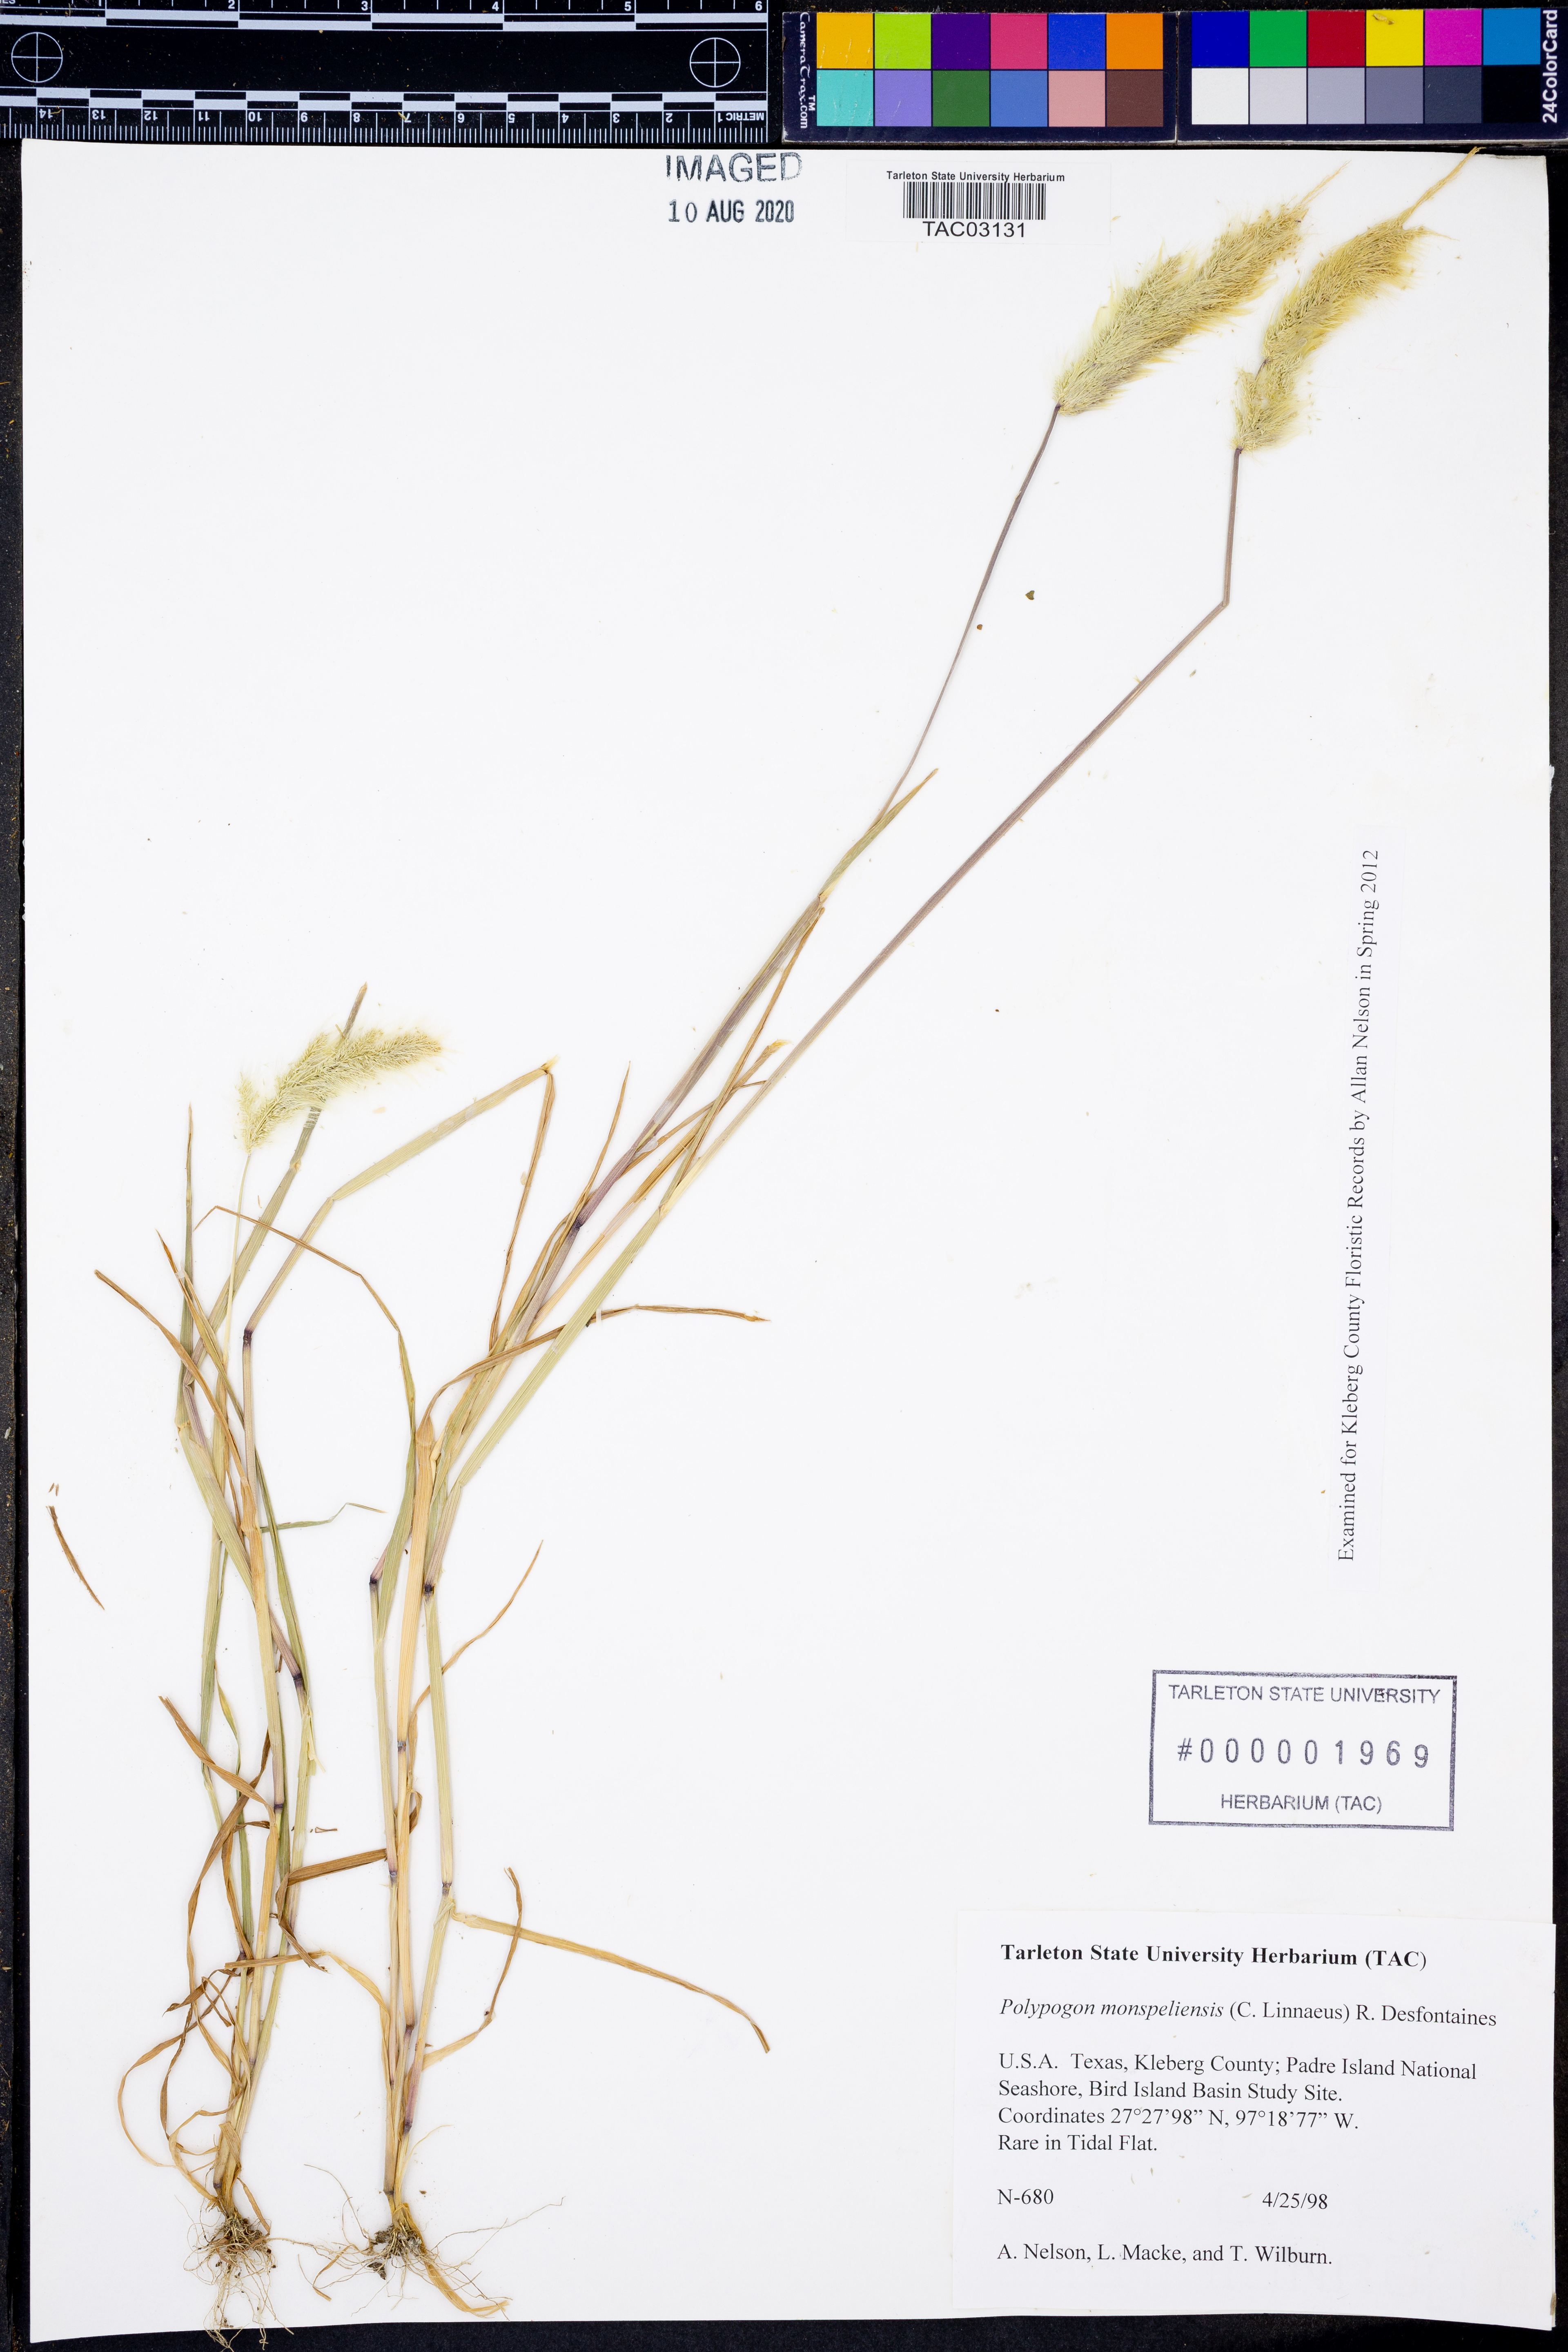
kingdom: Plantae
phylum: Tracheophyta
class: Liliopsida
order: Poales
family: Poaceae
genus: Polypogon
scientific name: Polypogon monspeliensis
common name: Annual rabbitsfoot grass
